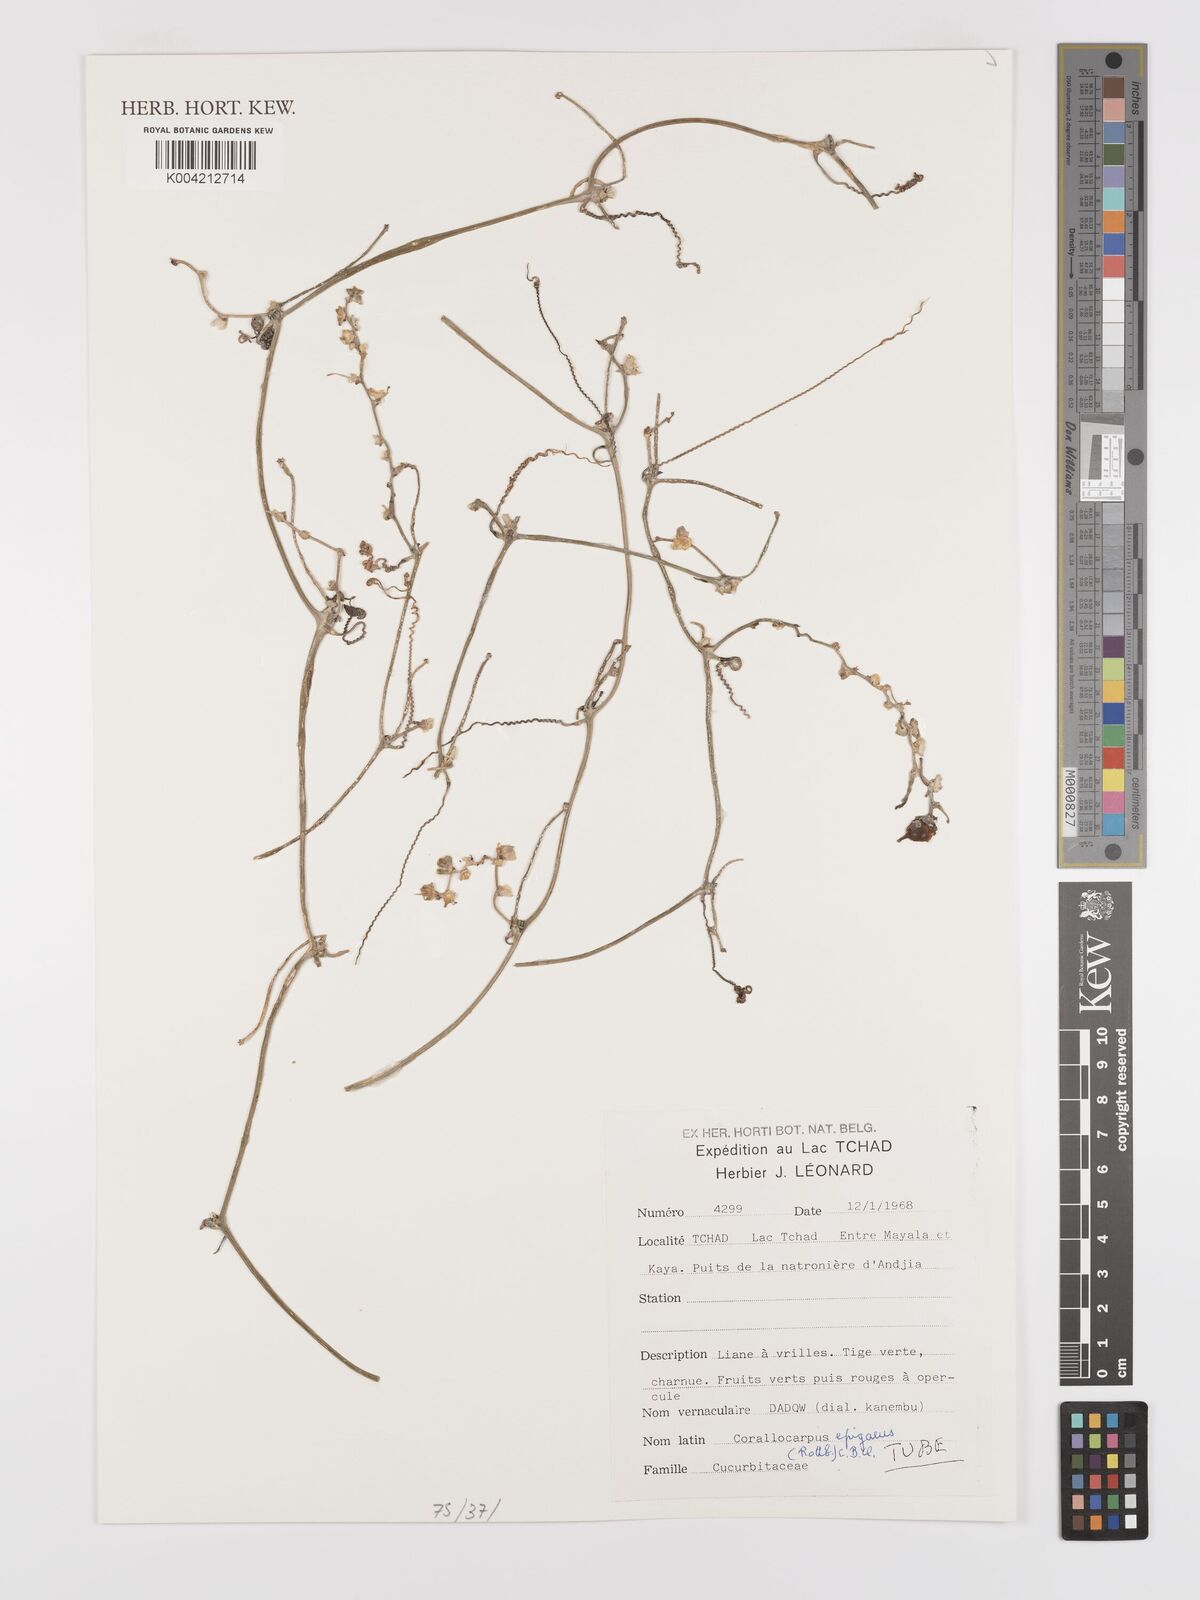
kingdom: Plantae
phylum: Tracheophyta
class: Magnoliopsida
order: Cucurbitales
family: Cucurbitaceae
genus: Corallocarpus
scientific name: Corallocarpus epigaeus
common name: Indian bryonia
